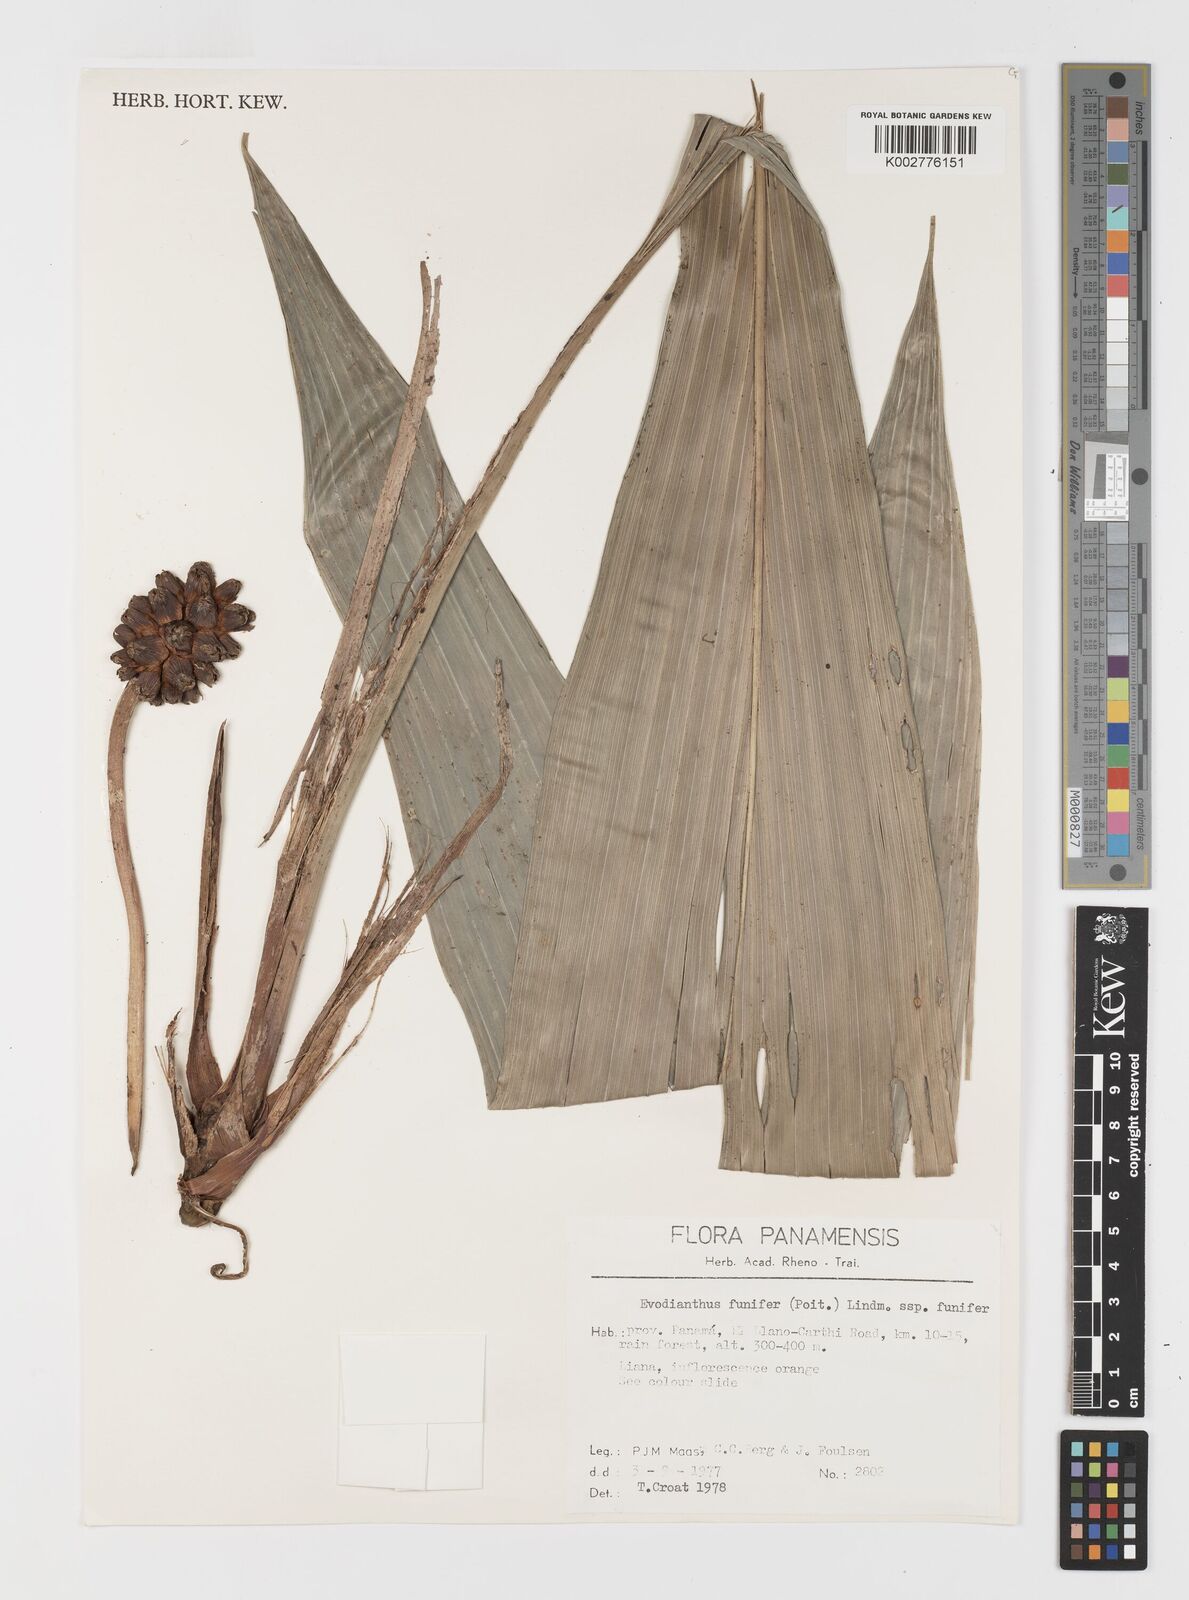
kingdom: Plantae
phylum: Tracheophyta
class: Liliopsida
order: Pandanales
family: Cyclanthaceae
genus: Evodianthus
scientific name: Evodianthus funifer
